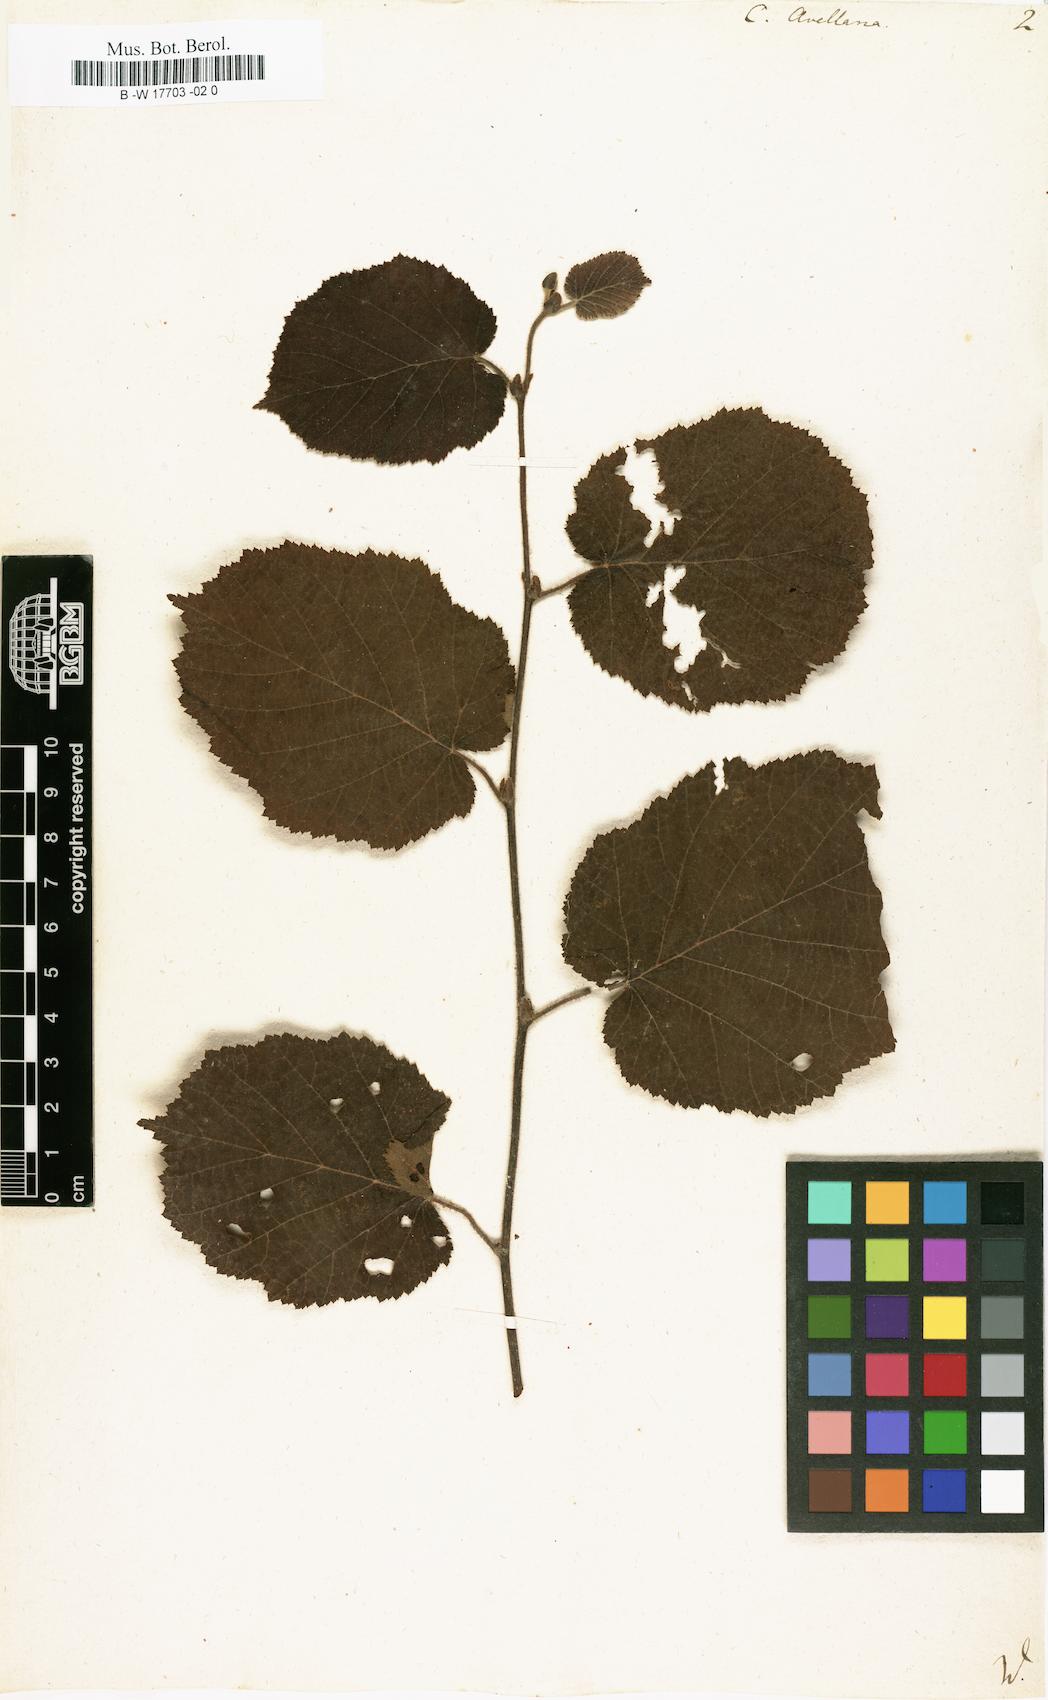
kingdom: Plantae
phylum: Tracheophyta
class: Magnoliopsida
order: Fagales
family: Betulaceae
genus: Corylus
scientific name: Corylus avellana
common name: European hazel
